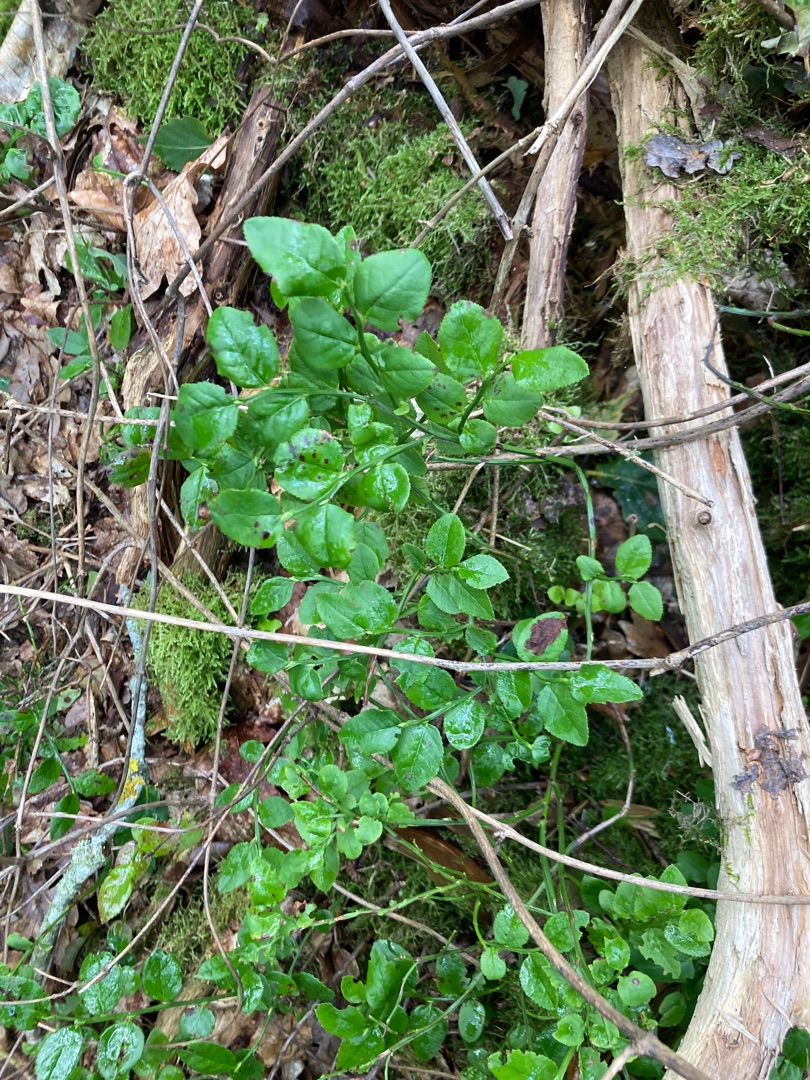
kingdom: Plantae
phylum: Tracheophyta
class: Magnoliopsida
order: Ericales
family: Ericaceae
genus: Vaccinium
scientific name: Vaccinium myrtillus
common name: Blåbær
